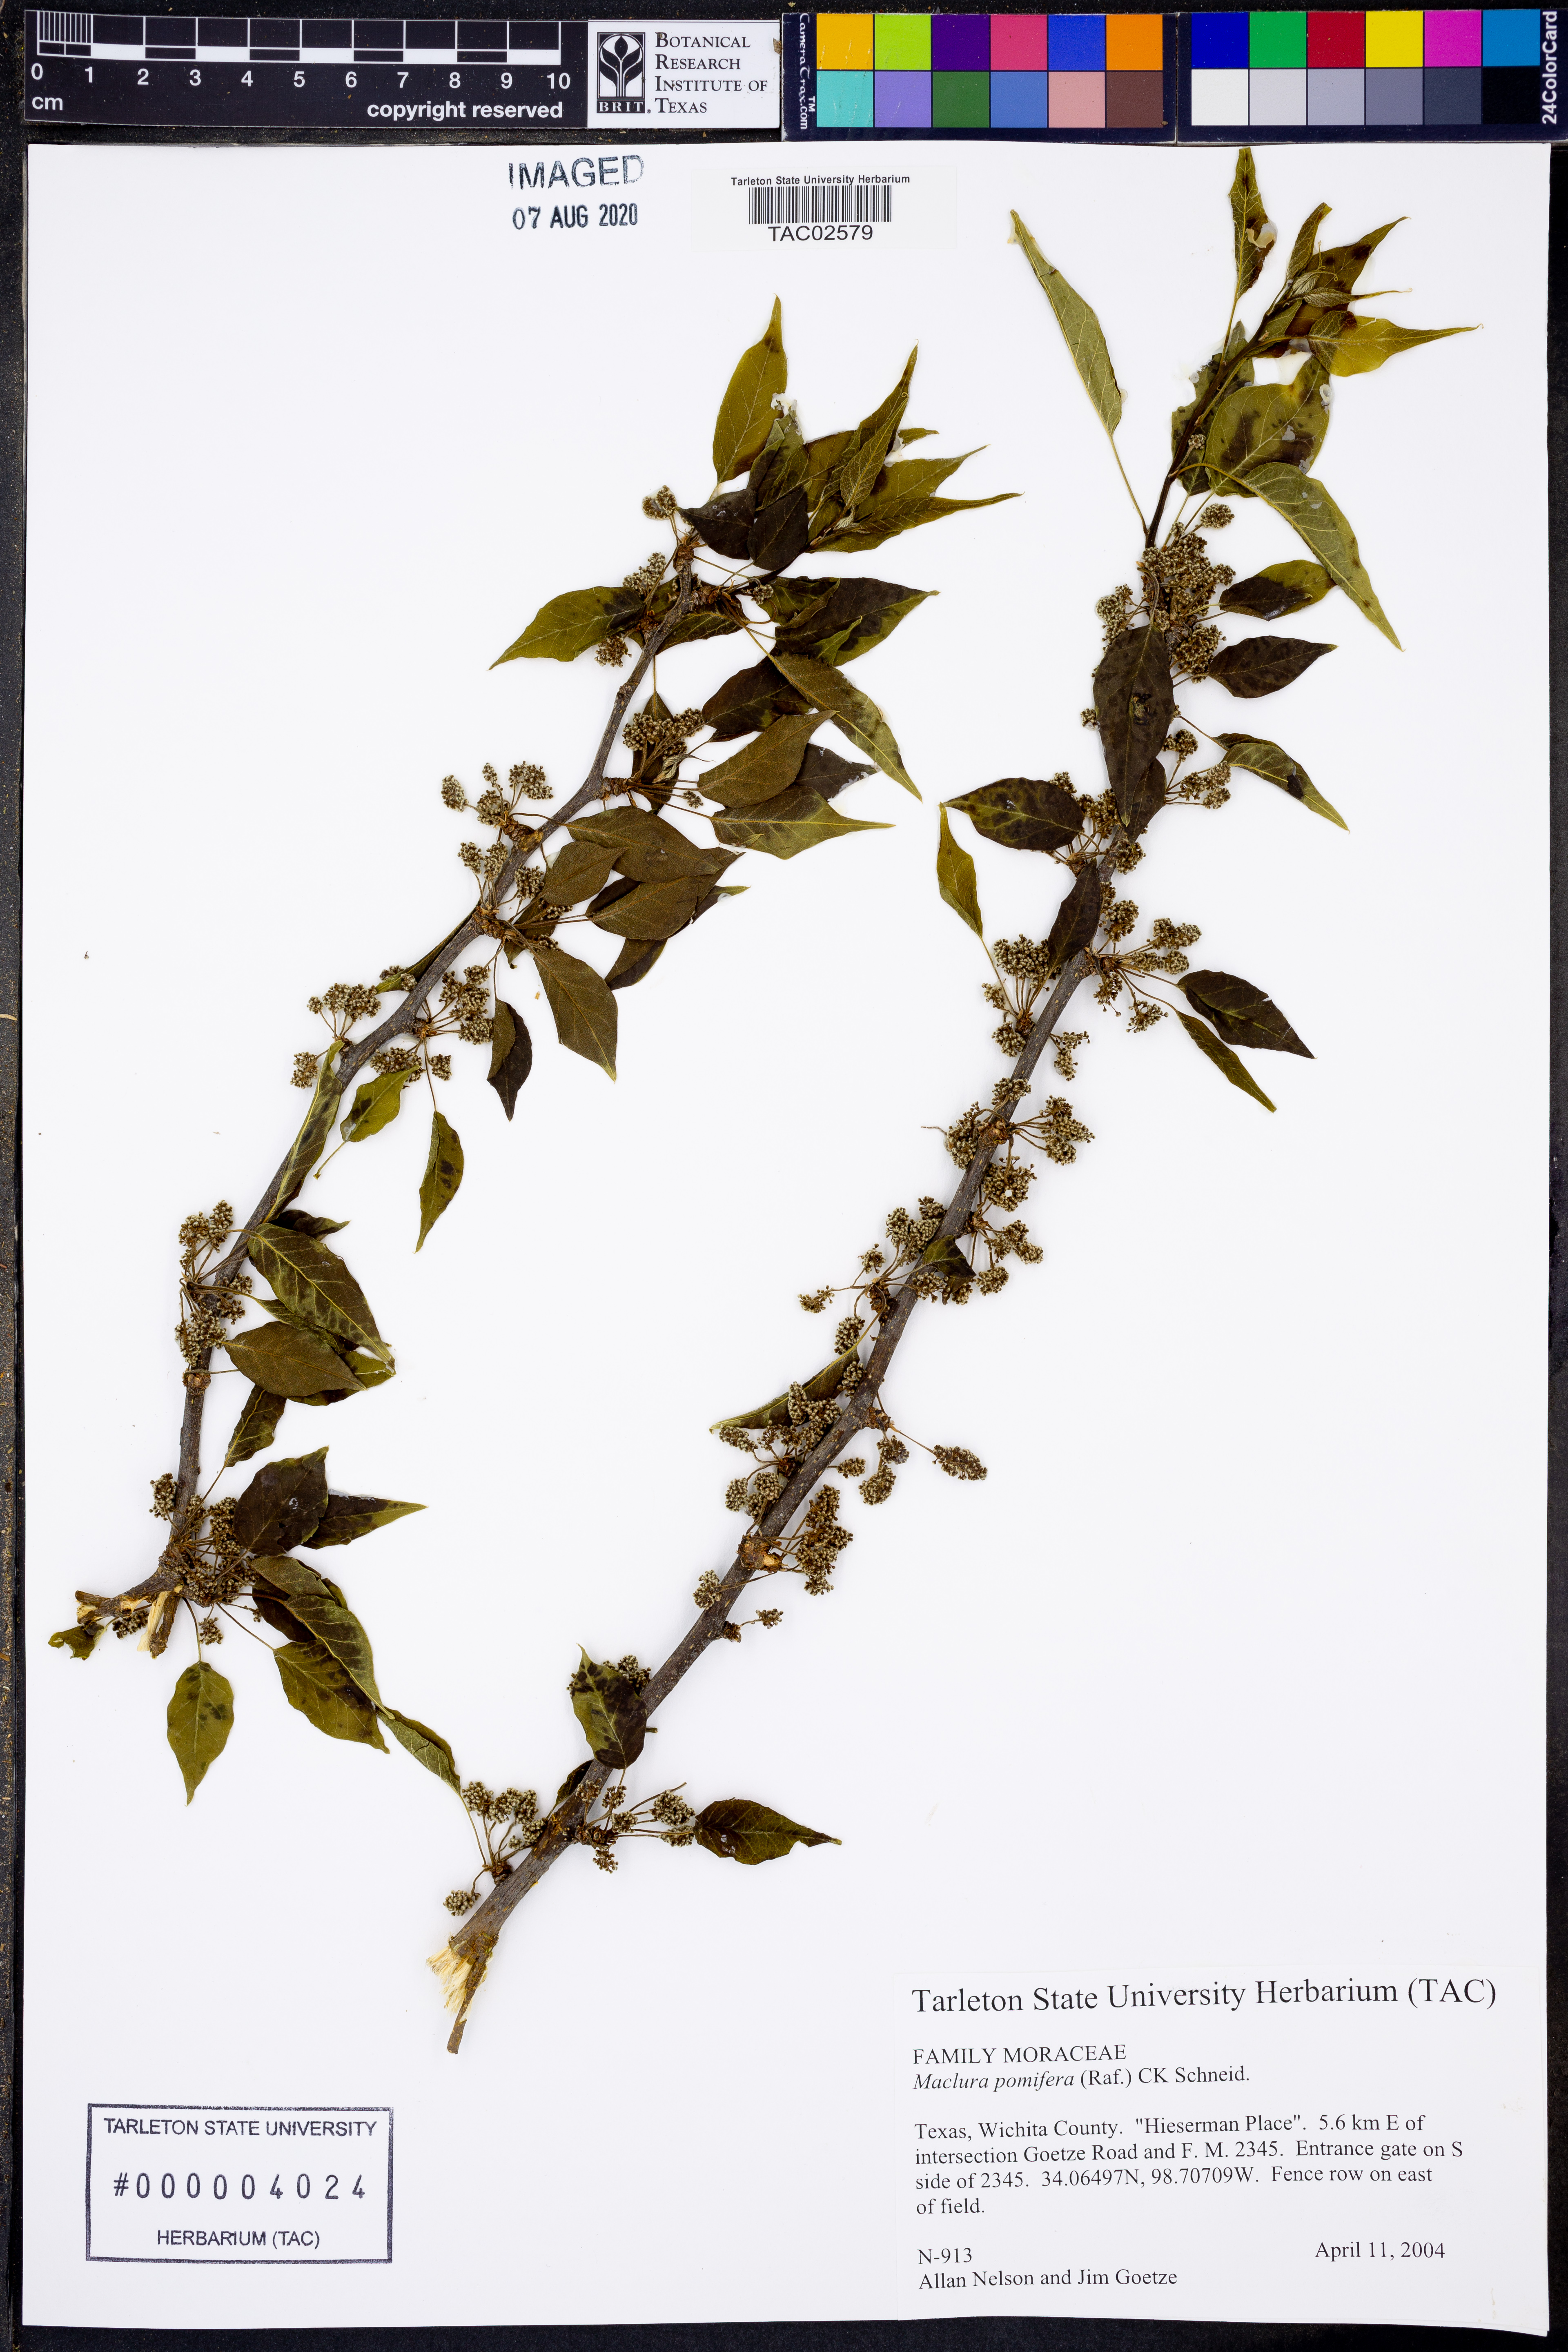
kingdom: Plantae
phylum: Tracheophyta
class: Magnoliopsida
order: Rosales
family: Moraceae
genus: Maclura
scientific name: Maclura pomifera
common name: Osage-orange
